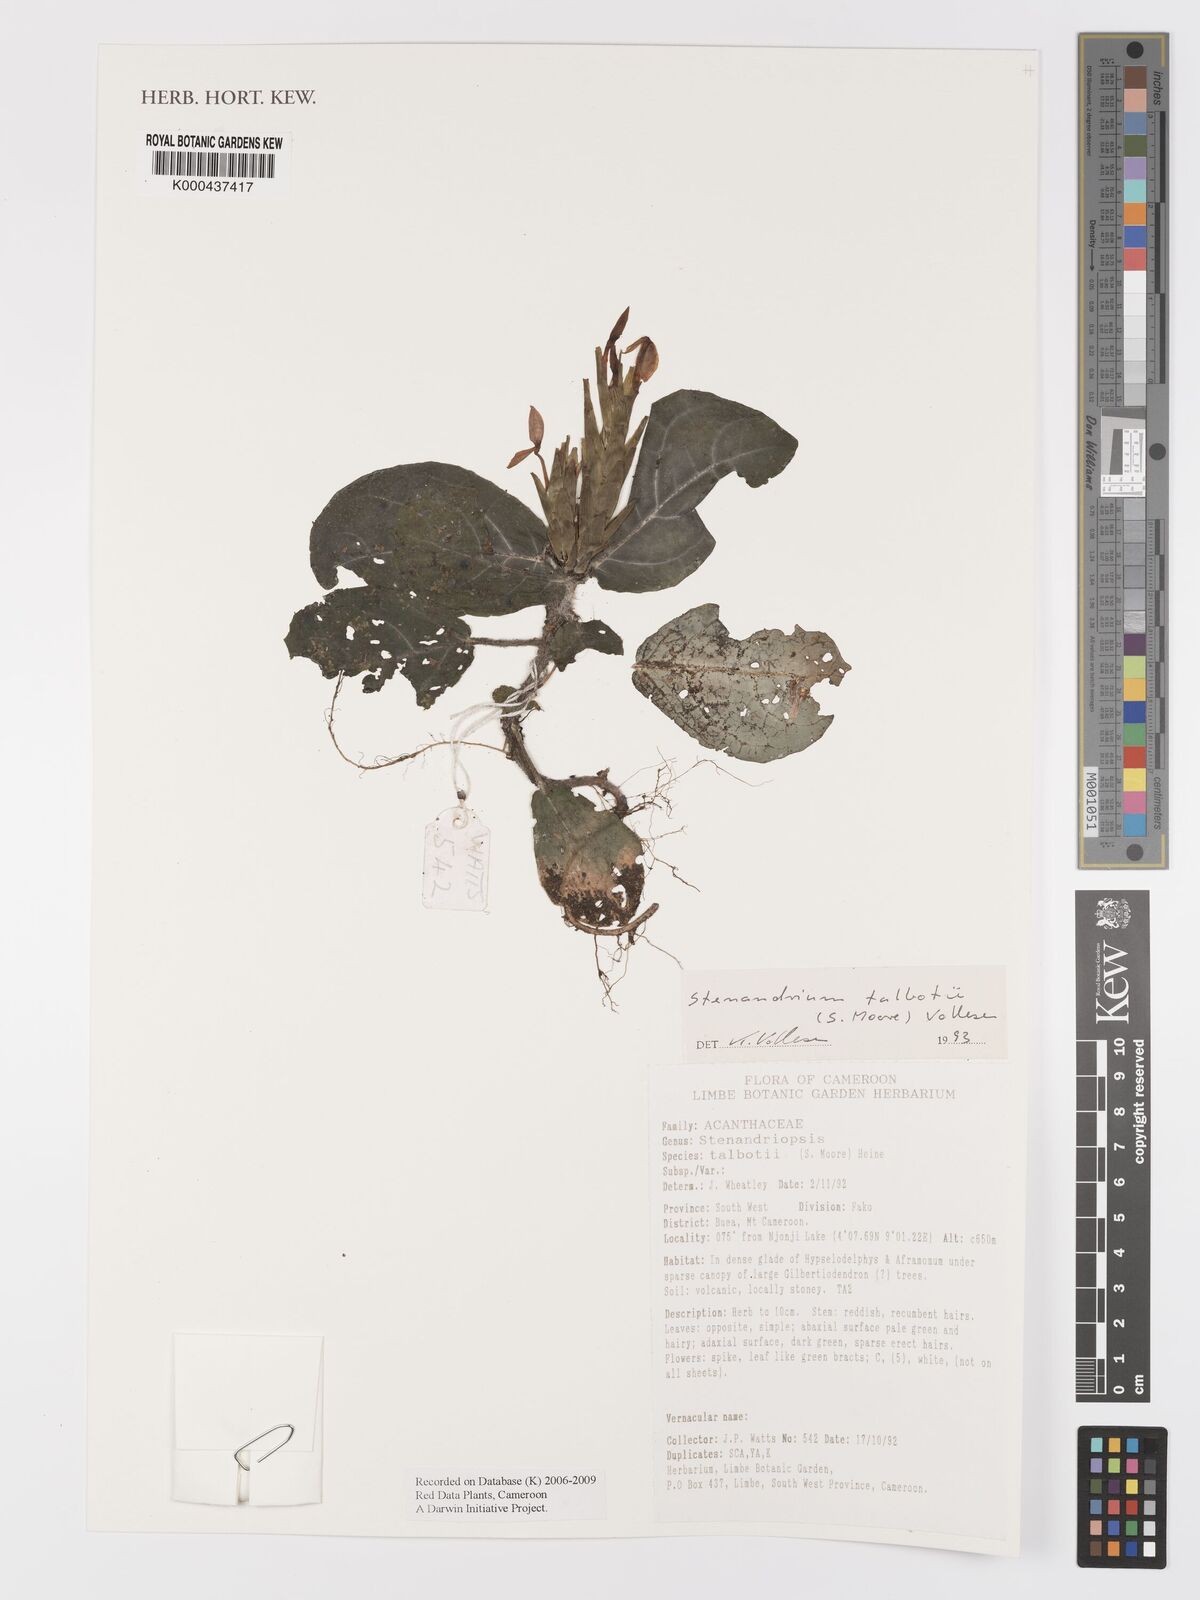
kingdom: Plantae
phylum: Tracheophyta
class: Magnoliopsida
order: Lamiales
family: Acanthaceae
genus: Stenandriopsis
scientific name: Stenandriopsis talbotii
